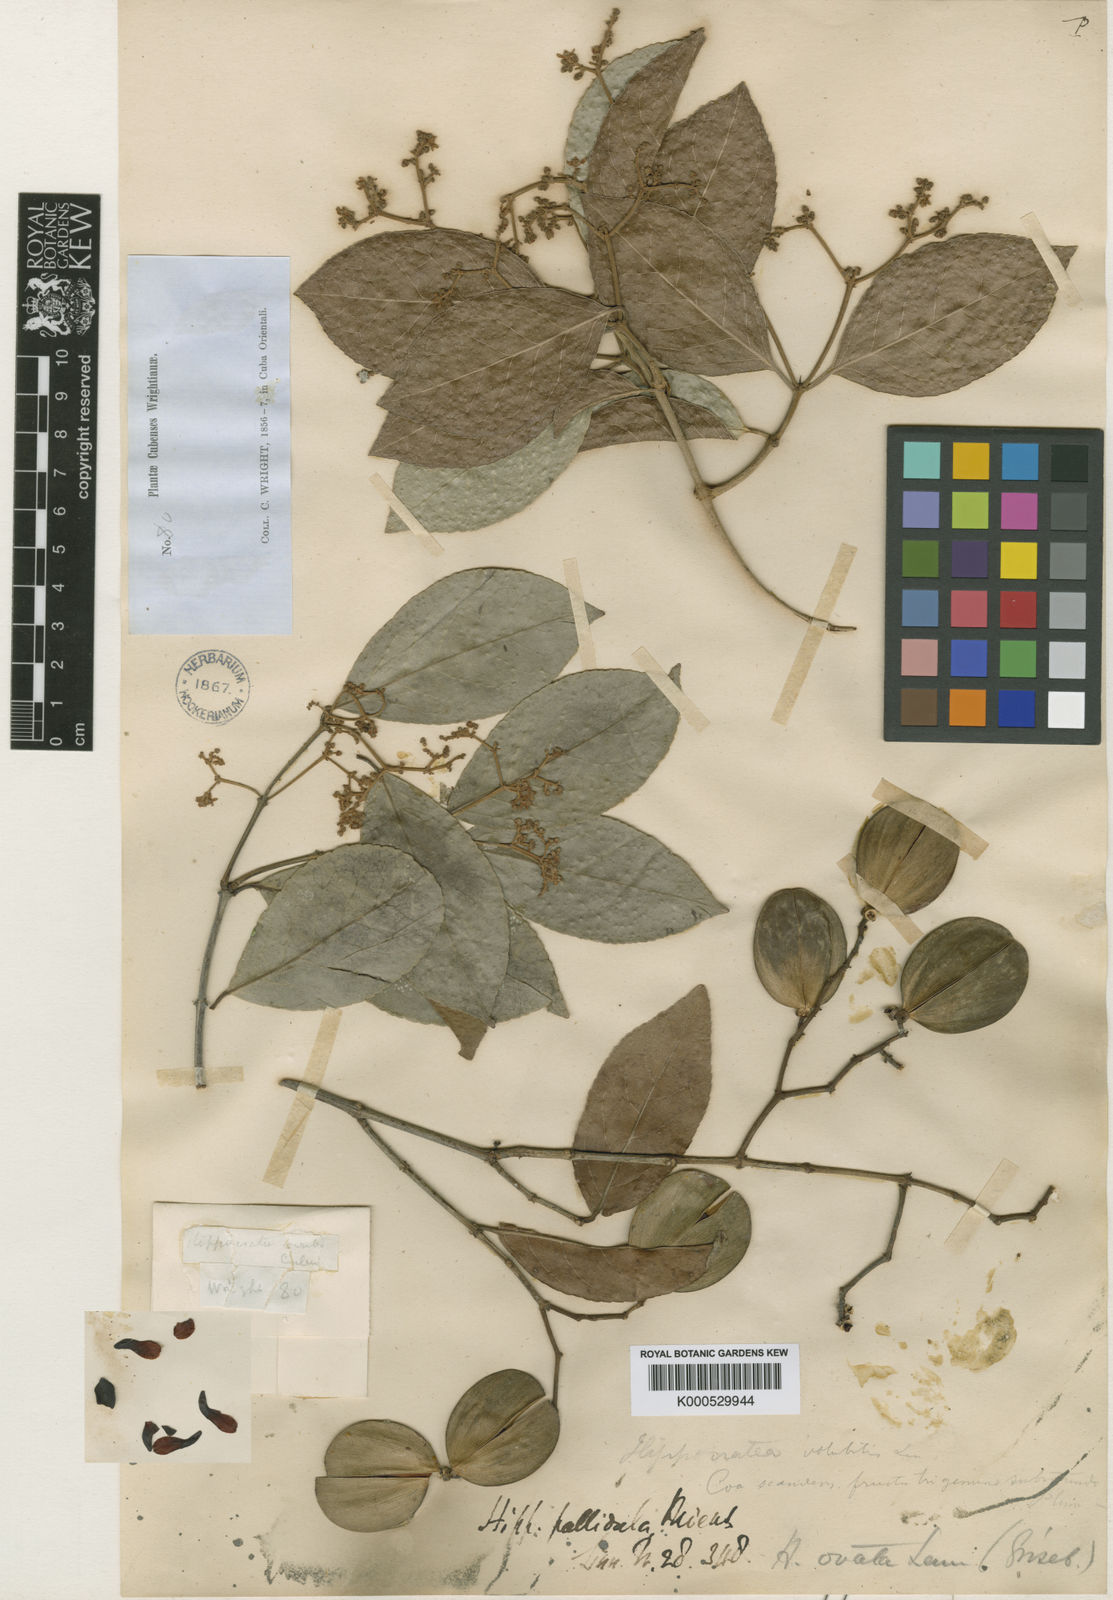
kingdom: Plantae
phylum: Tracheophyta
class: Magnoliopsida
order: Celastrales
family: Celastraceae
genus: Hippocratea
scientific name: Hippocratea volubilis
